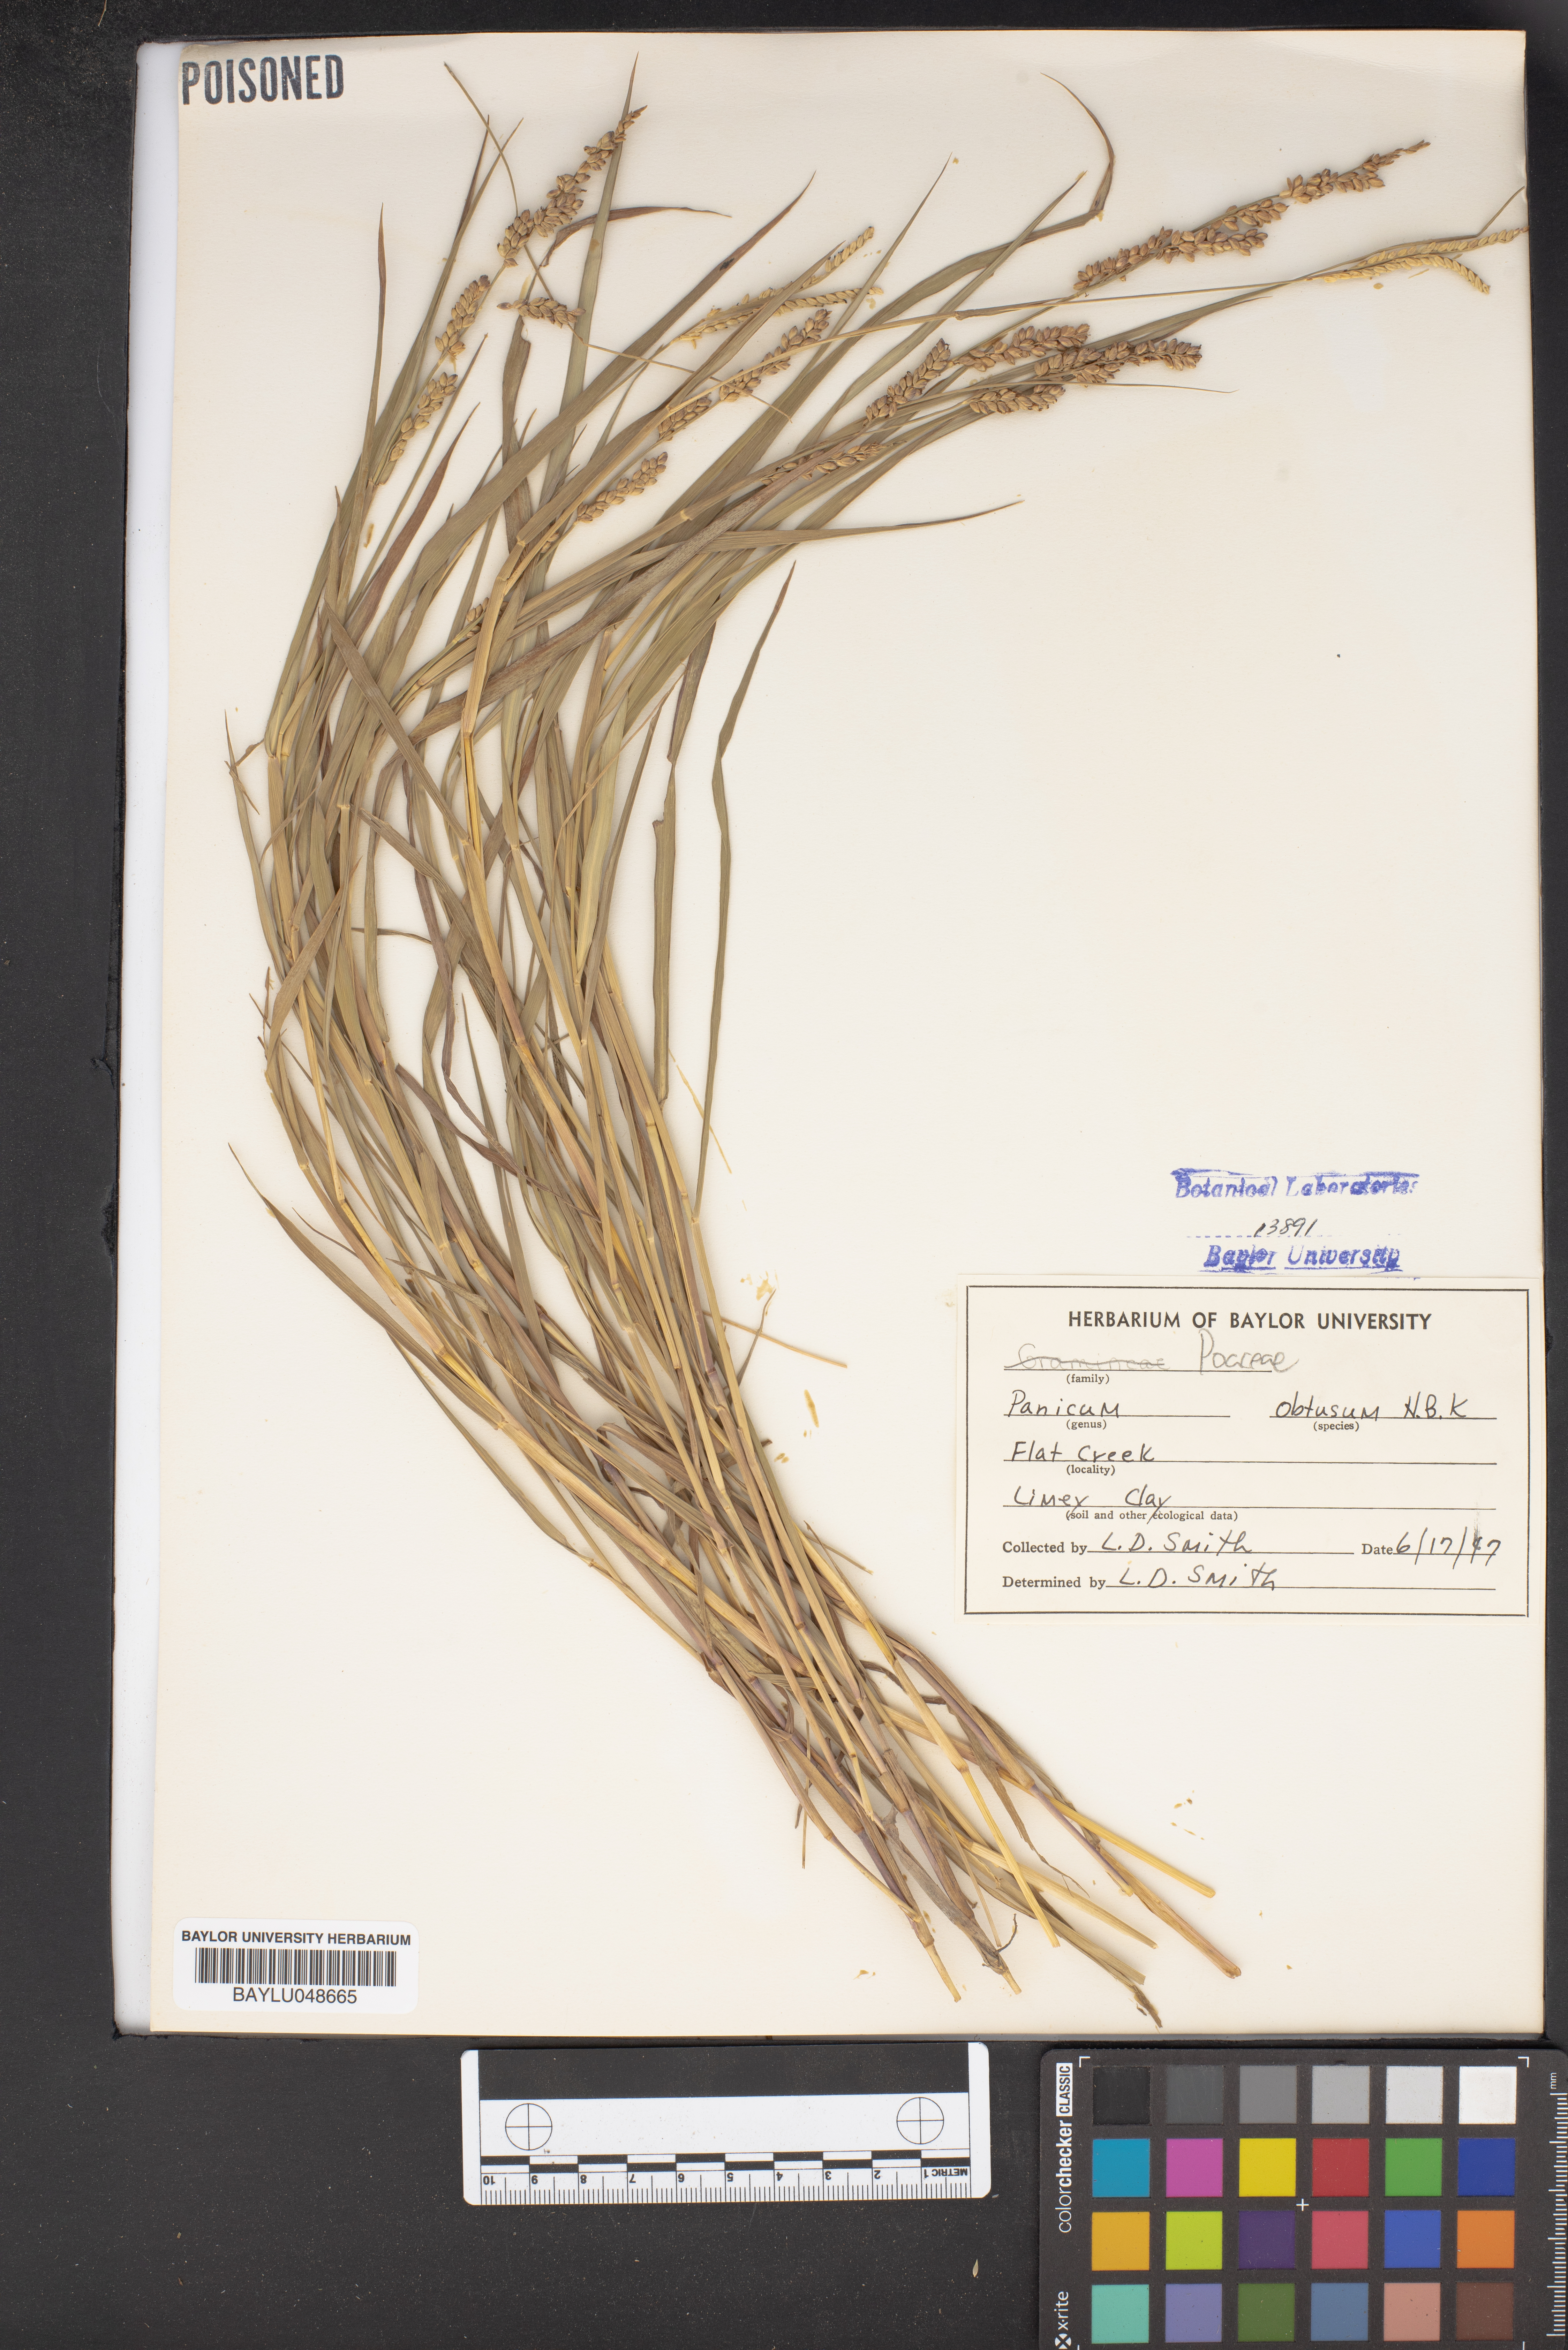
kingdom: Plantae
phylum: Tracheophyta
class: Liliopsida
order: Poales
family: Poaceae
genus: Hopia
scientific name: Hopia obtusa
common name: Vine-mesquite
